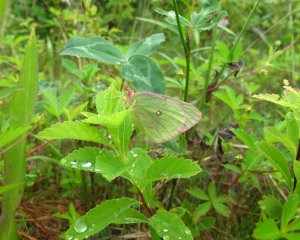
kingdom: Animalia
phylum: Arthropoda
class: Insecta
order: Lepidoptera
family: Pieridae
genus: Colias
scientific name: Colias interior
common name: Pink-edged Sulphur
